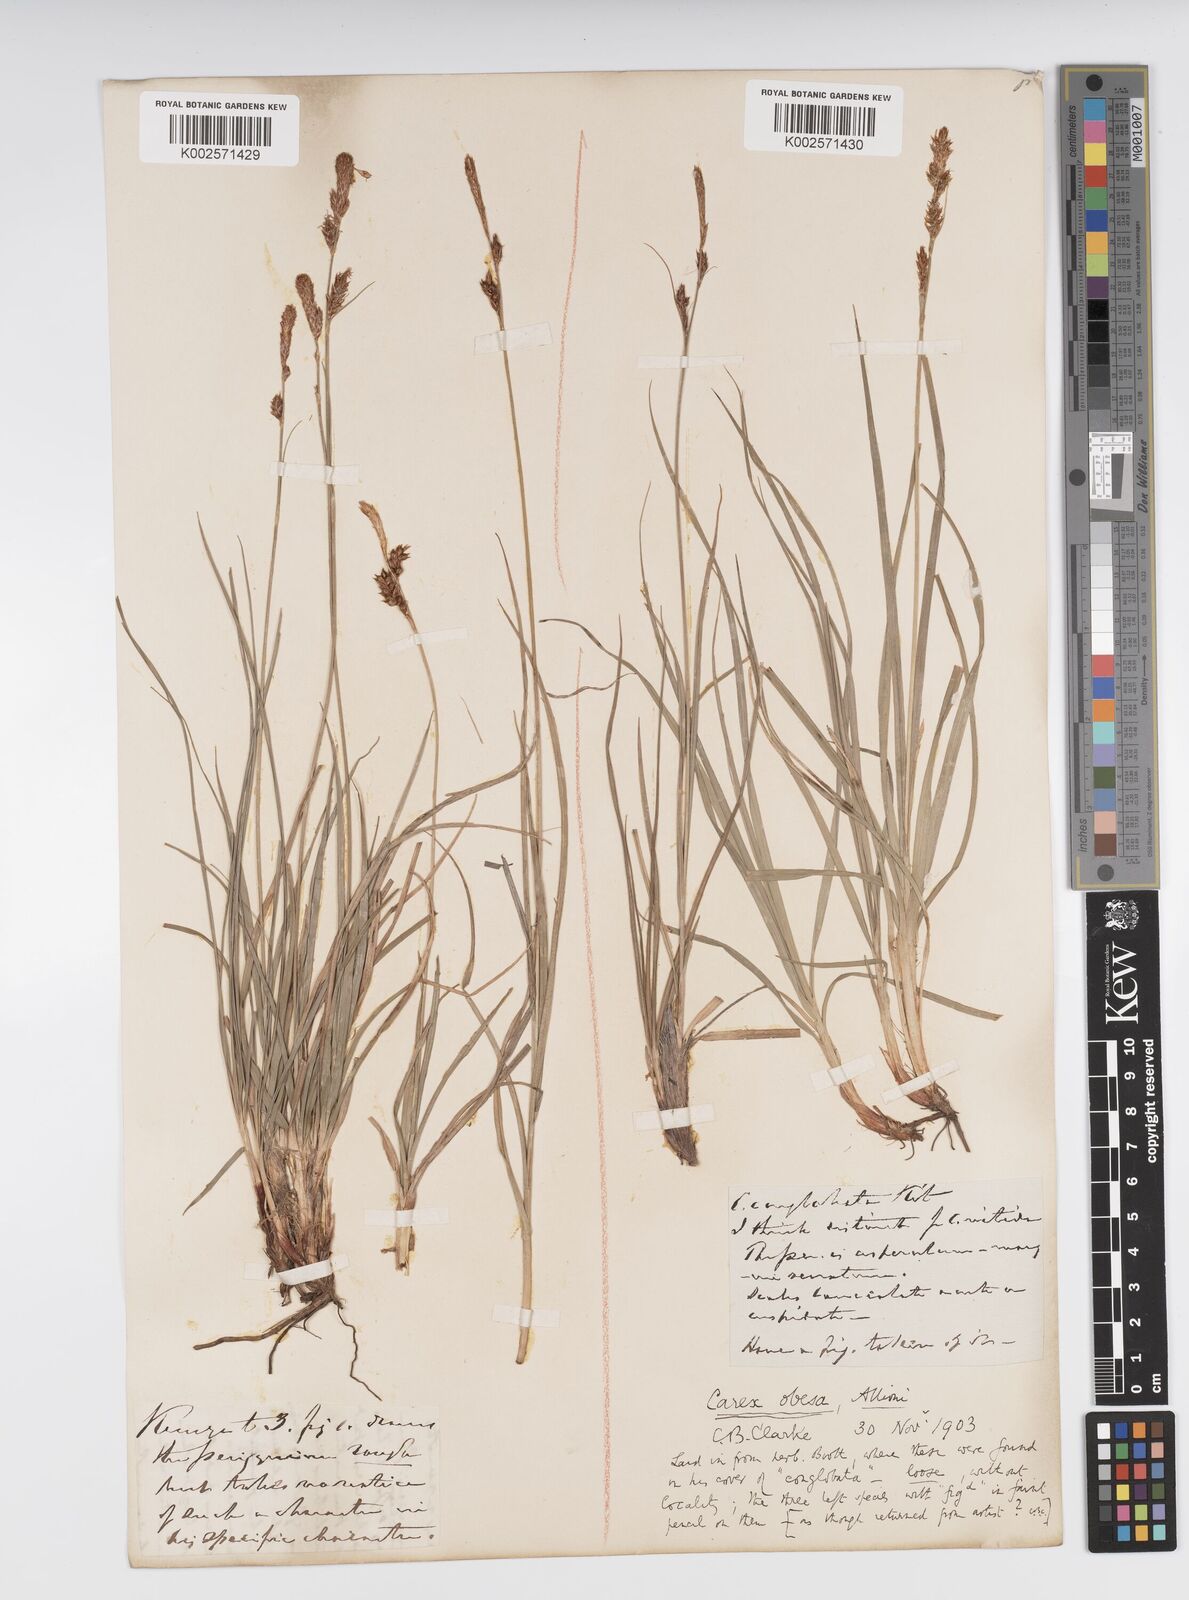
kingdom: Plantae
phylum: Tracheophyta
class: Liliopsida
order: Poales
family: Cyperaceae
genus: Carex
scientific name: Carex liparocarpos
